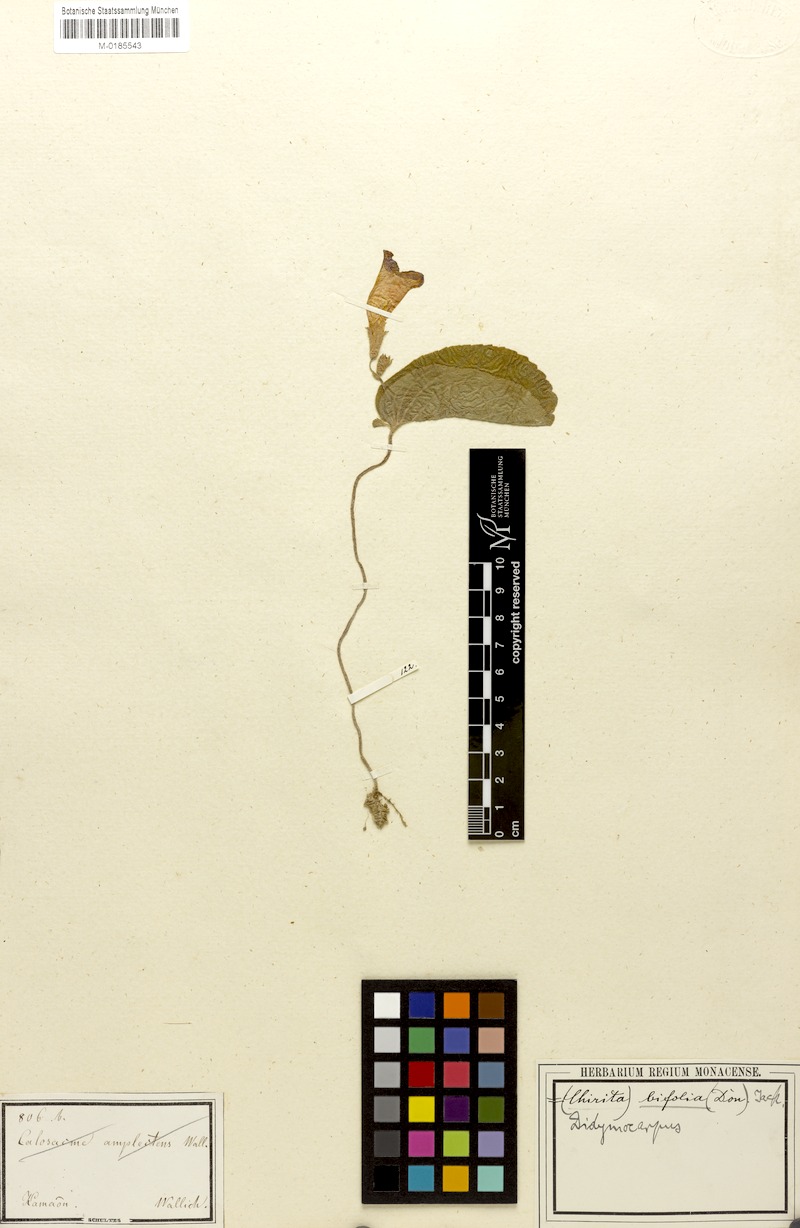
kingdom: Plantae
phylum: Tracheophyta
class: Magnoliopsida
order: Lamiales
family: Gesneriaceae
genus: Henckelia
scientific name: Henckelia bifolia
